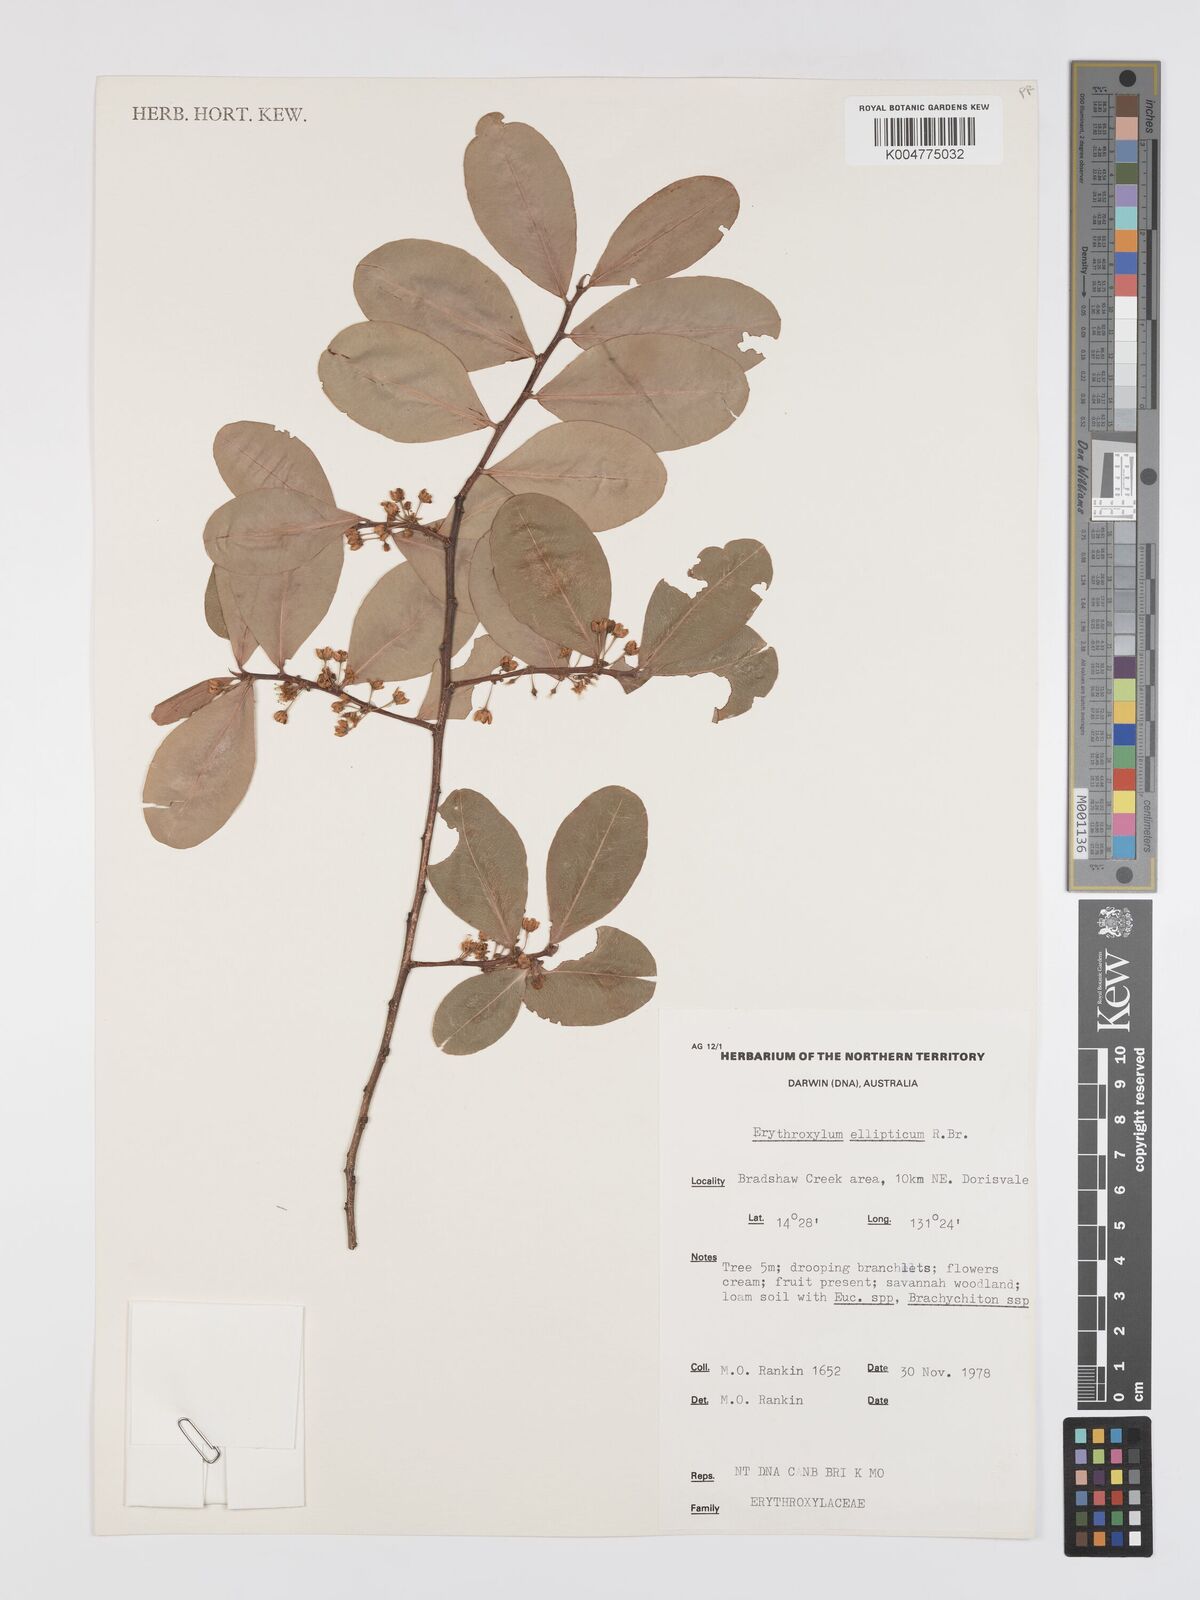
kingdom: Plantae
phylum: Tracheophyta
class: Magnoliopsida
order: Malpighiales
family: Erythroxylaceae
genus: Erythroxylum
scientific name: Erythroxylum
